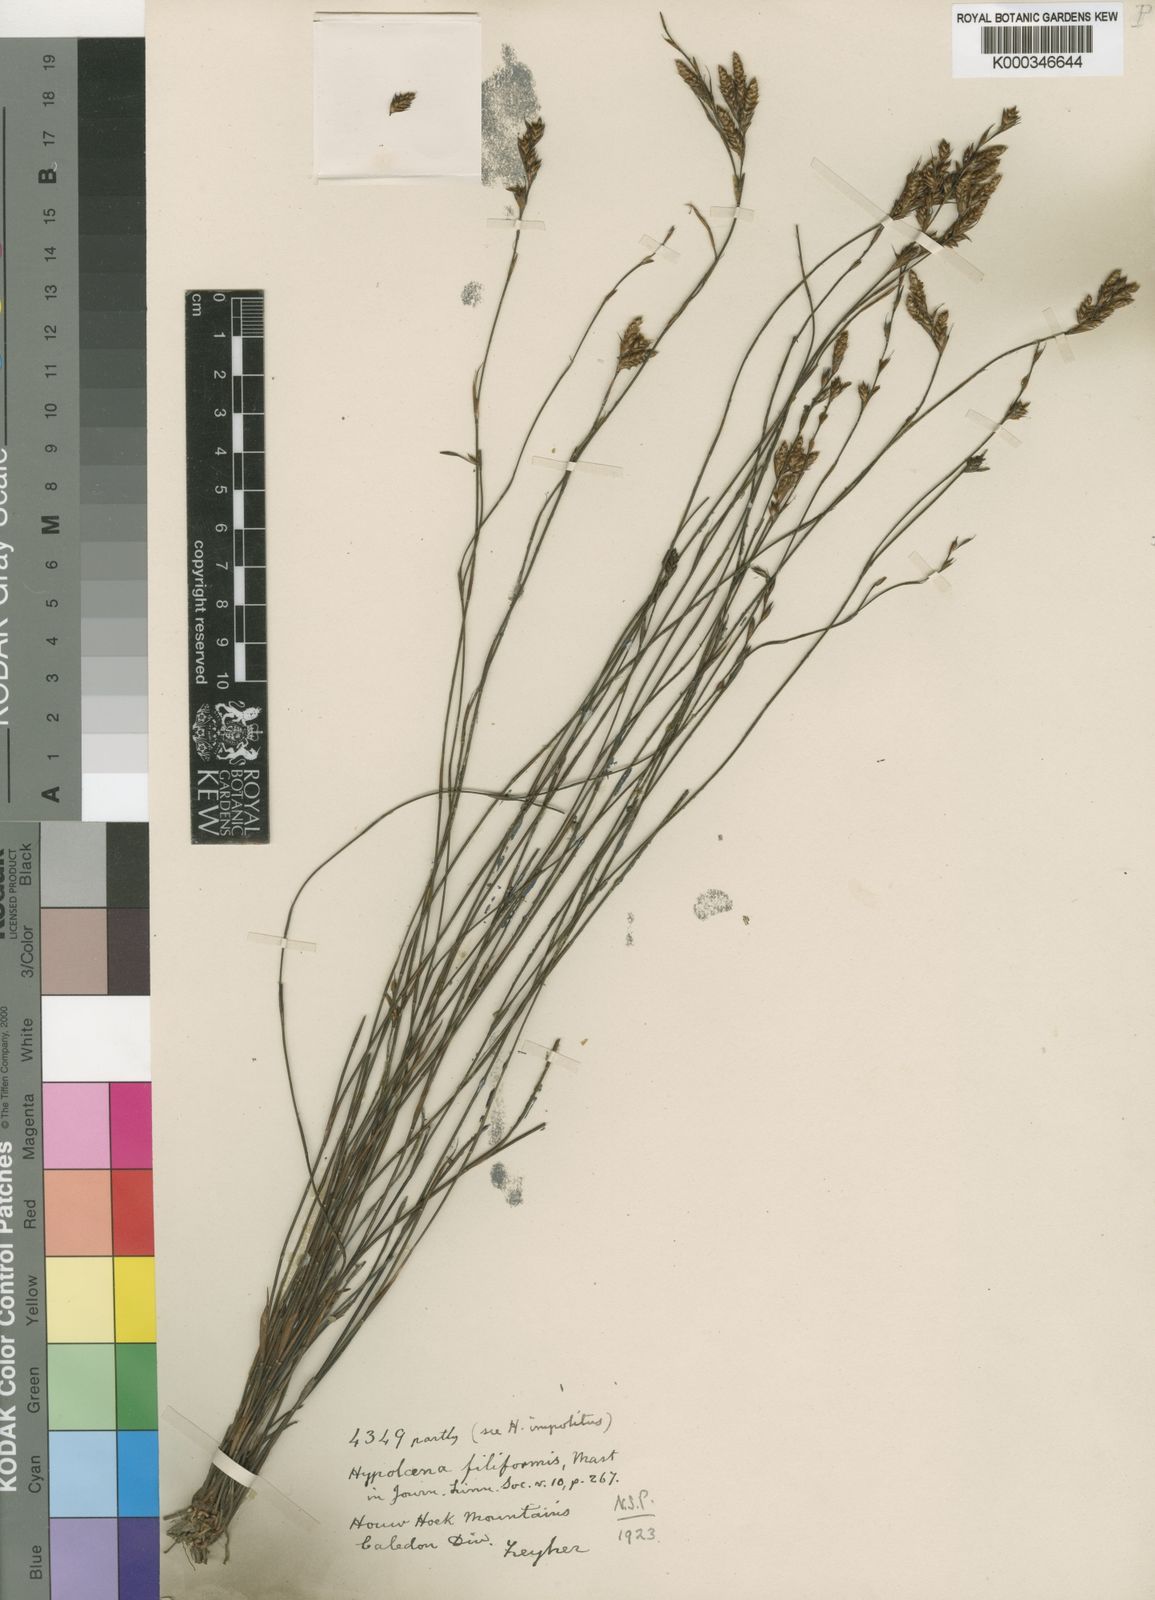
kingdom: Plantae
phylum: Tracheophyta
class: Liliopsida
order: Poales
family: Restionaceae
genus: Restio
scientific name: Restio tenuispicatus
